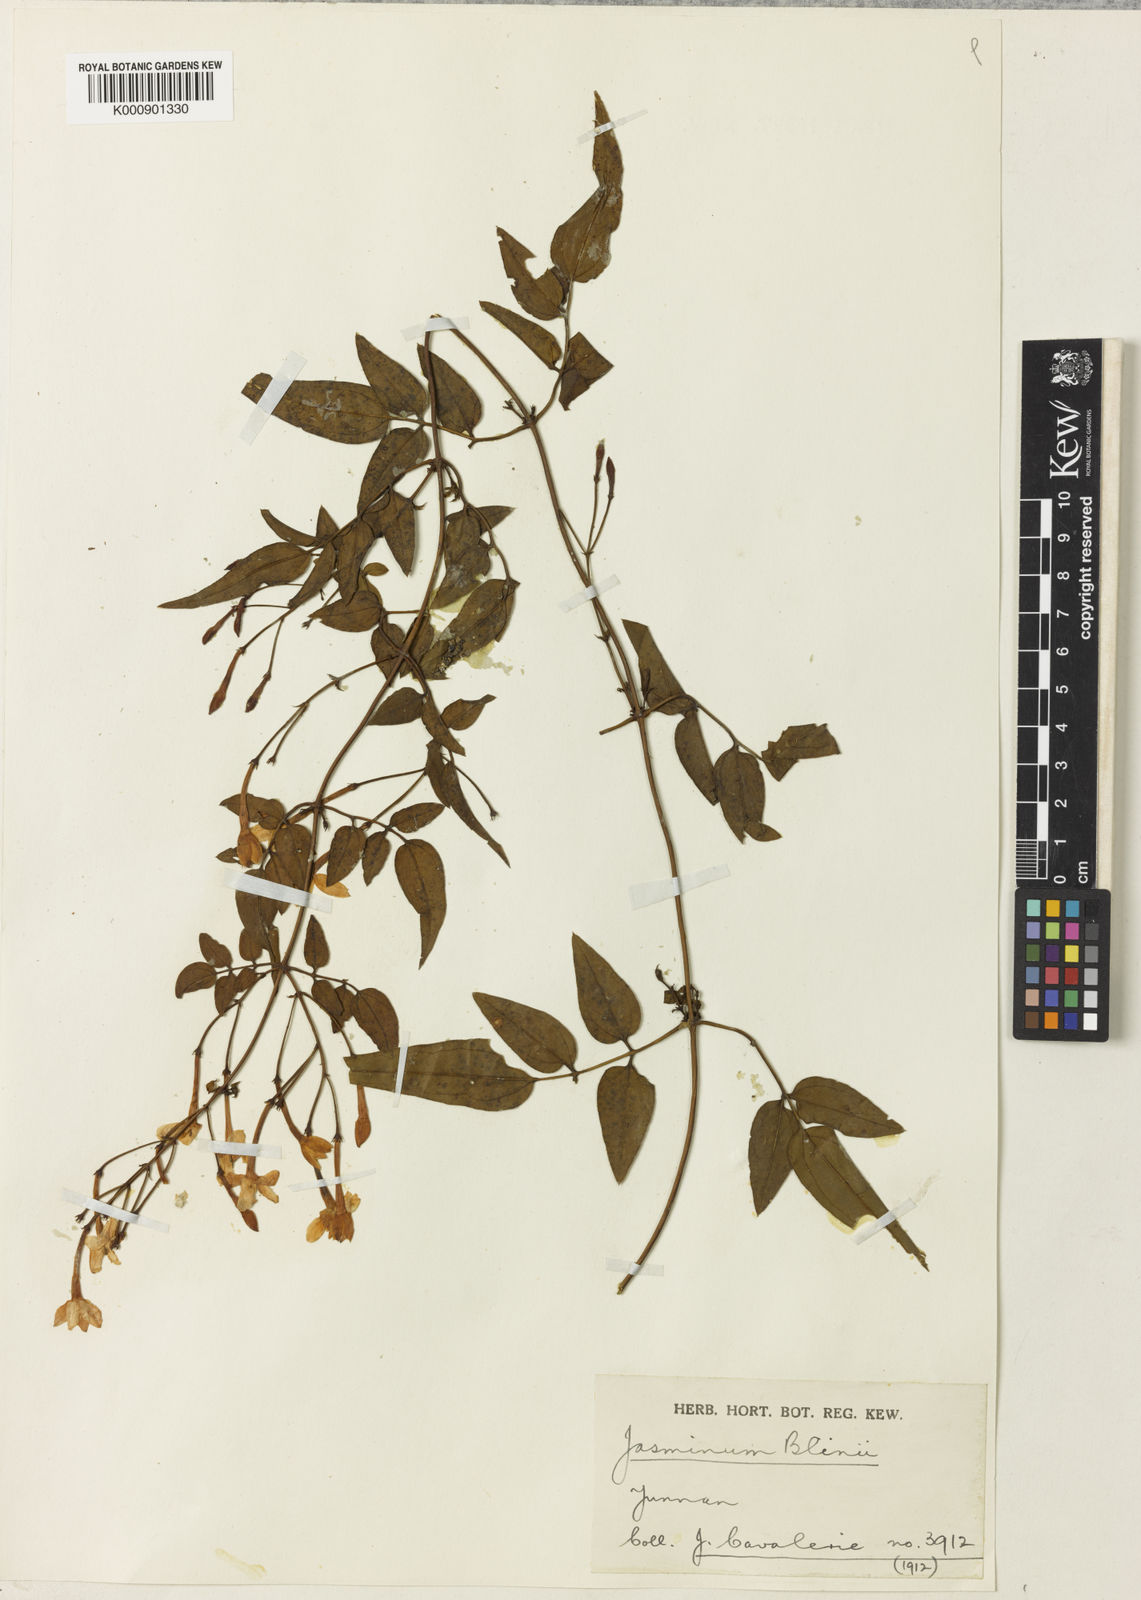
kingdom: Plantae
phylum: Tracheophyta
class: Magnoliopsida
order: Lamiales
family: Oleaceae
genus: Jasminum
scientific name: Jasminum polyanthum
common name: Pink jasmine
